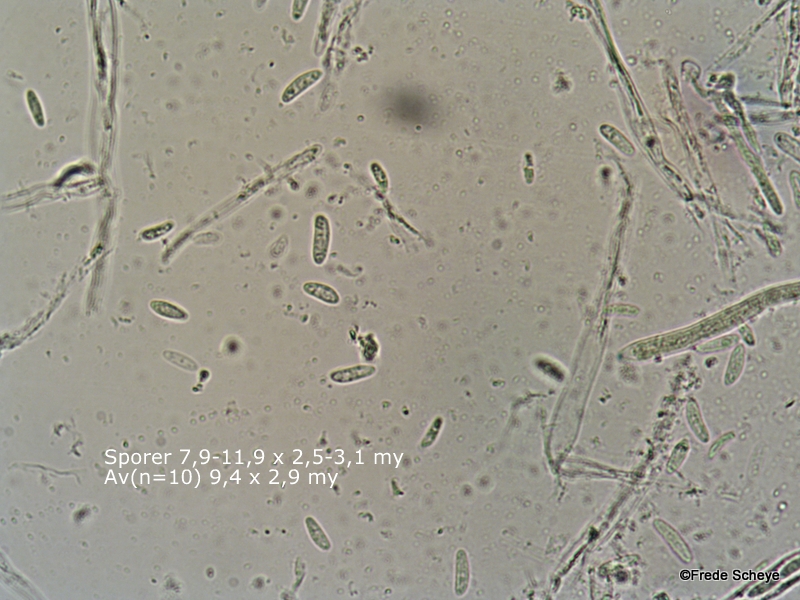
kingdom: Fungi
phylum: Ascomycota
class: Leotiomycetes
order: Helotiales
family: Mollisiaceae
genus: Mollisia
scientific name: Mollisia cinerea
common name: almindelig gråskive
